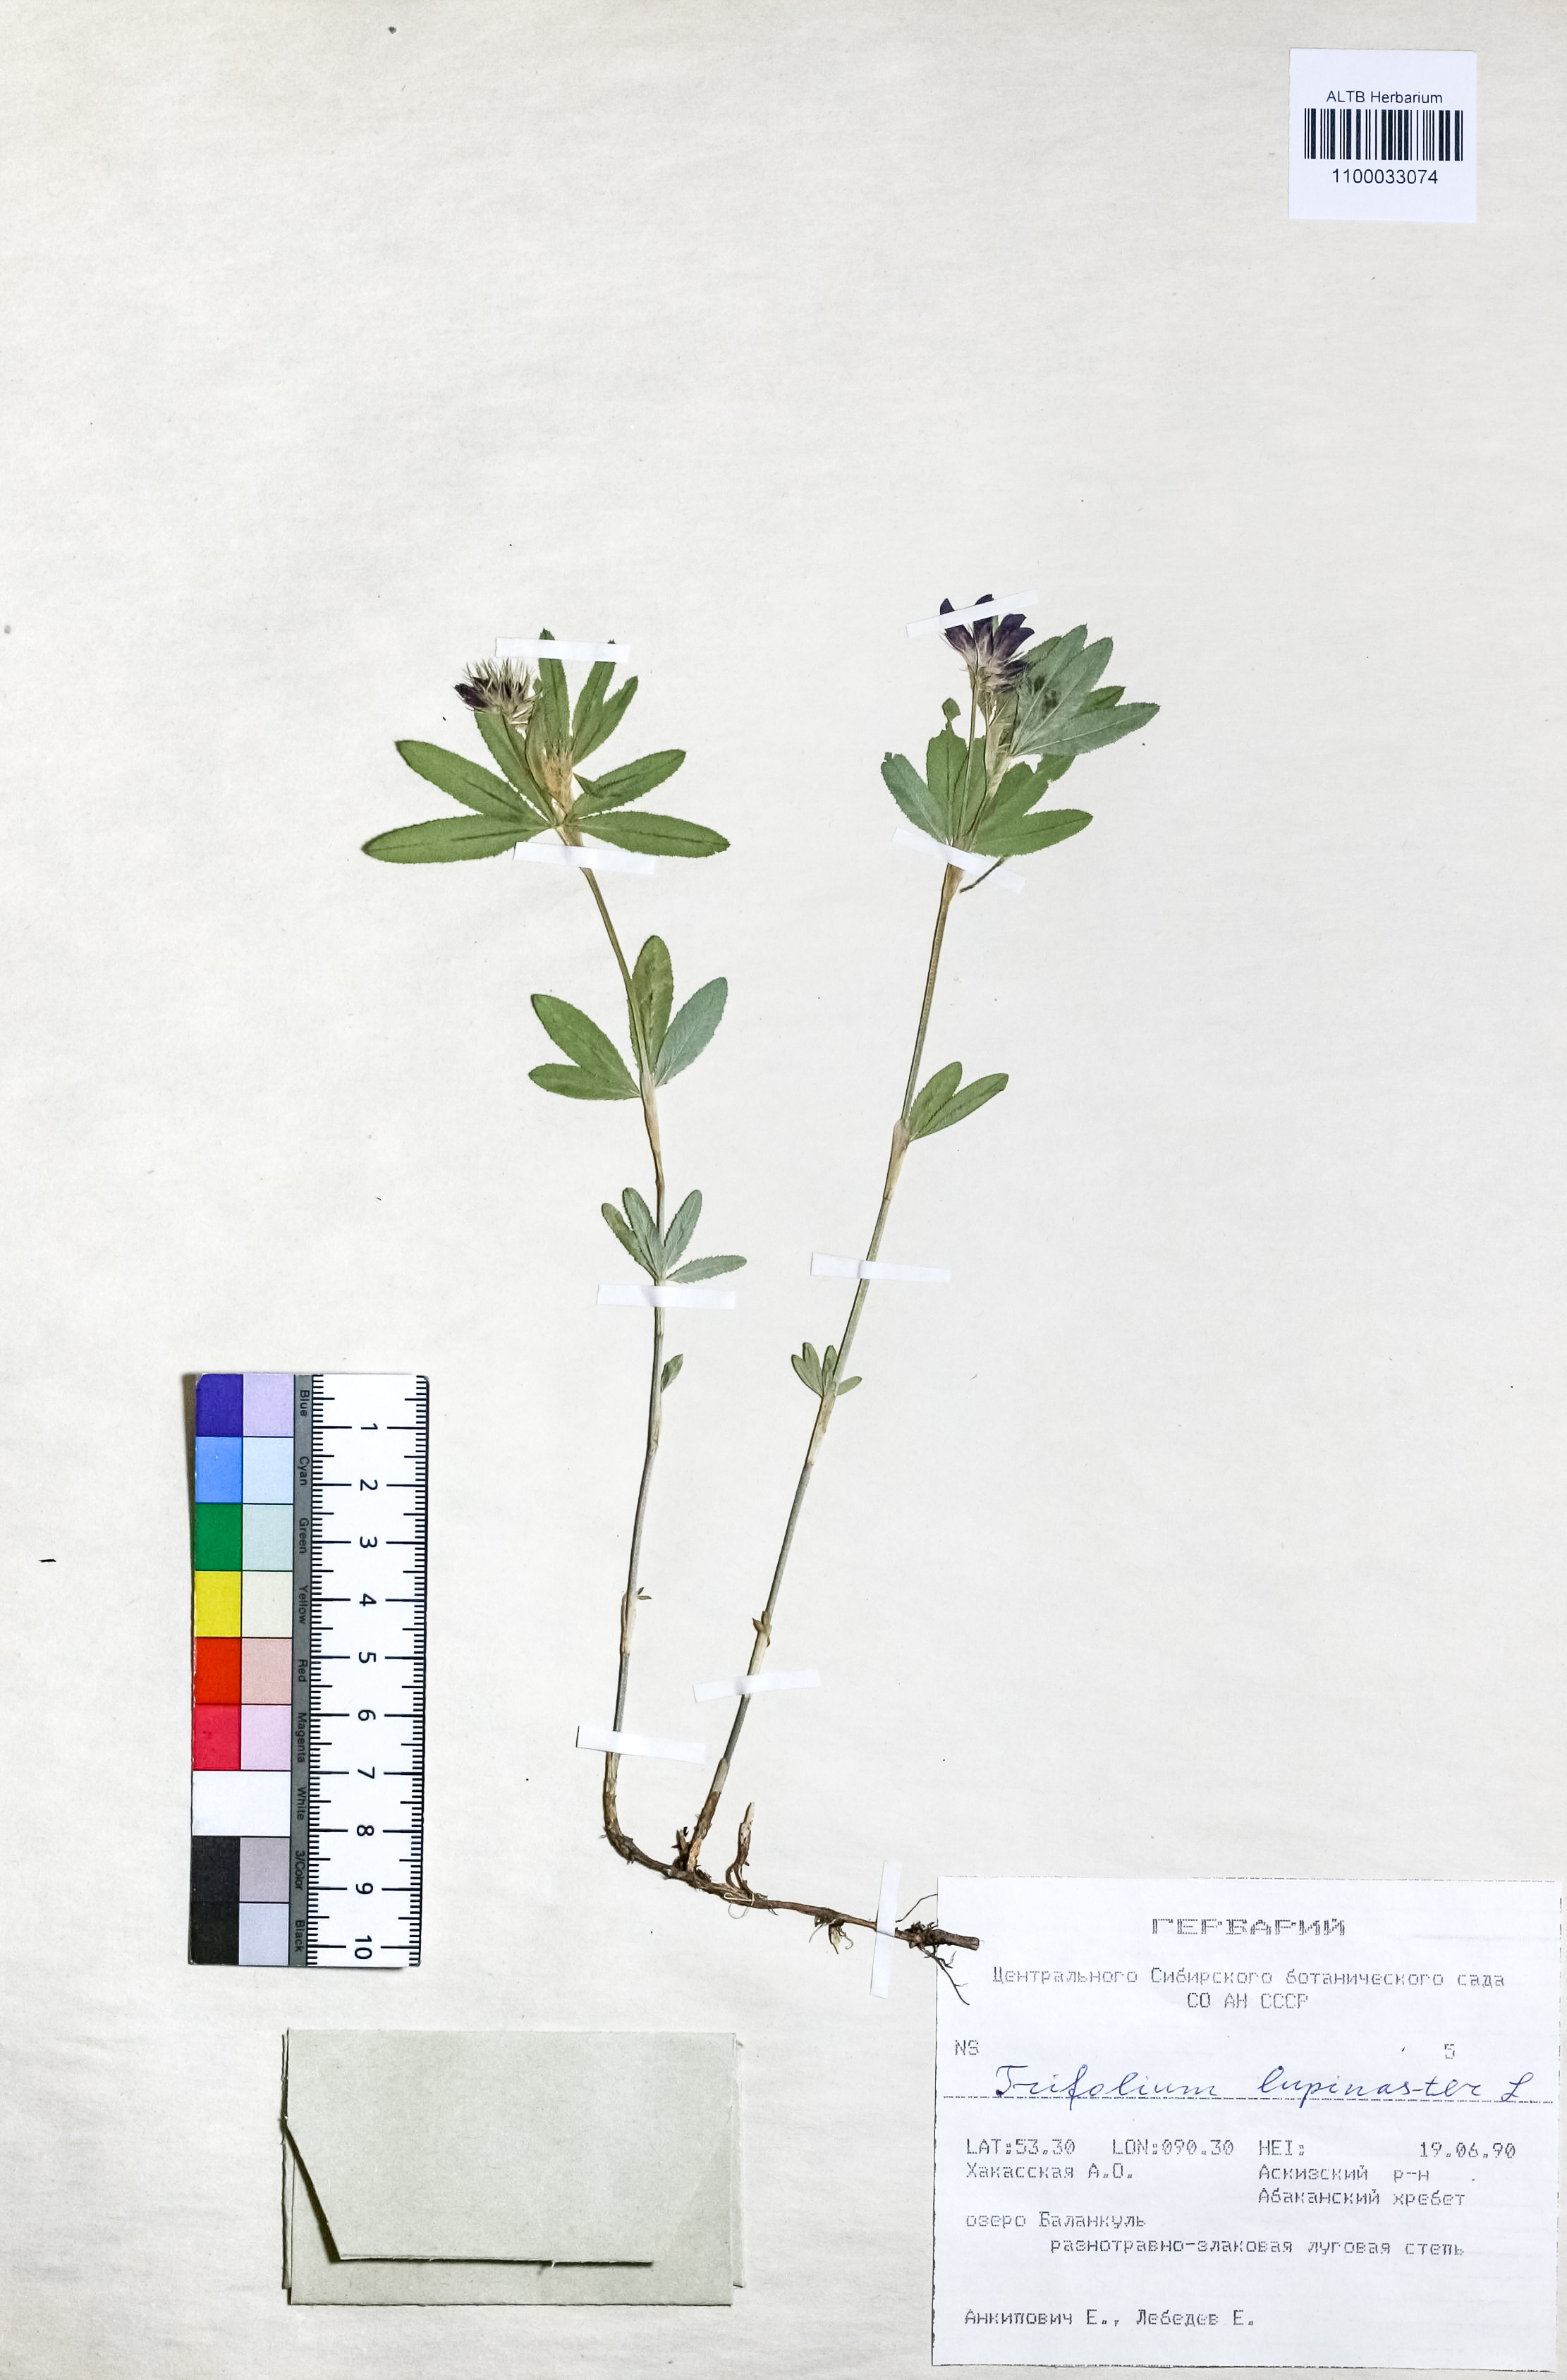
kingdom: Plantae
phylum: Tracheophyta
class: Magnoliopsida
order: Fabales
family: Fabaceae
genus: Trifolium
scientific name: Trifolium lupinaster
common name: Lupine clover
